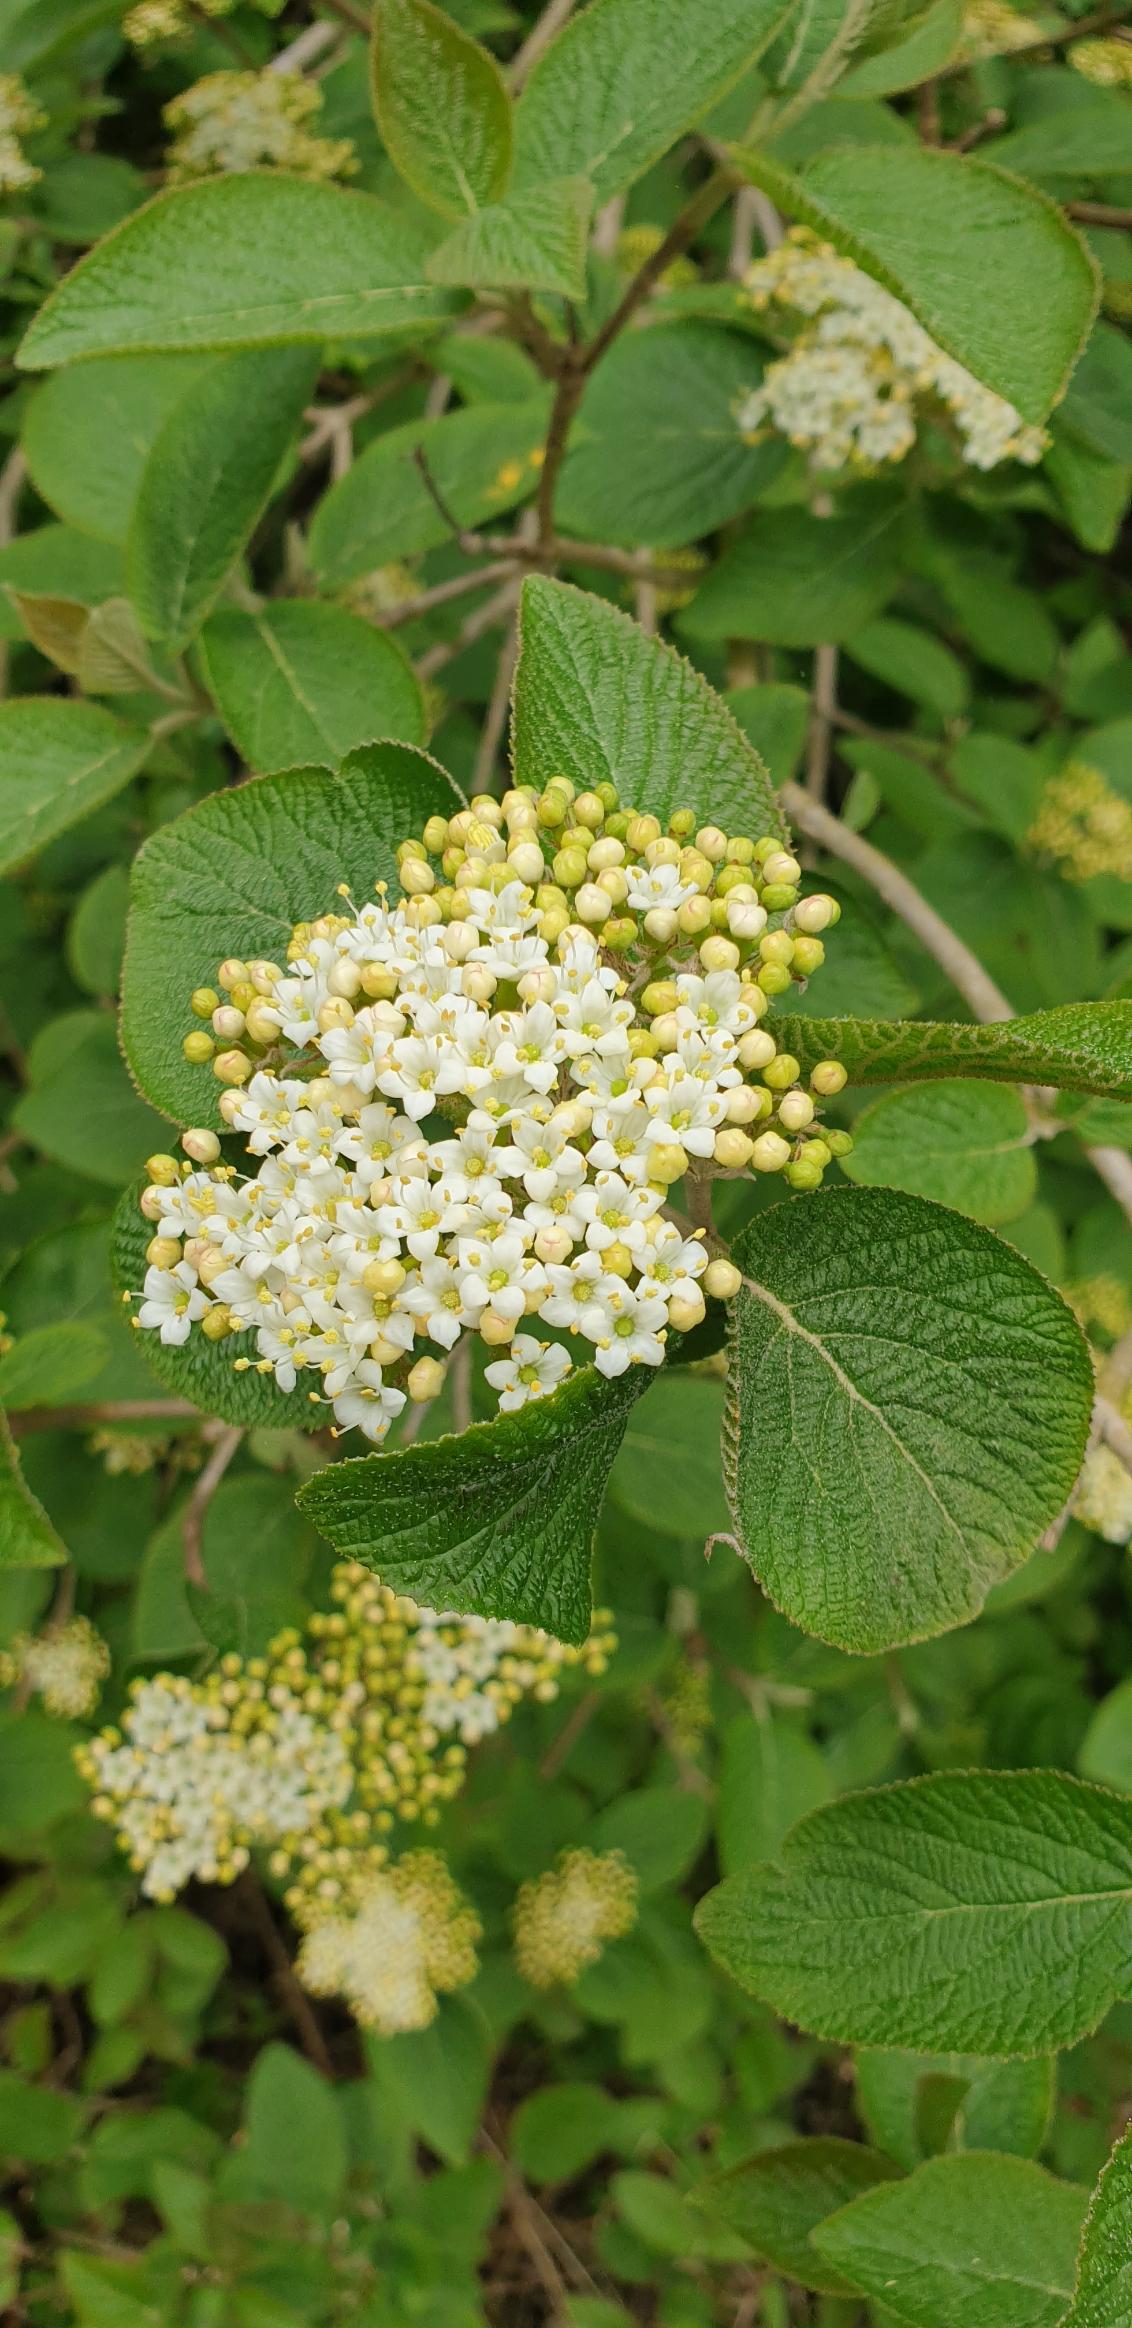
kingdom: Plantae
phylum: Tracheophyta
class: Magnoliopsida
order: Dipsacales
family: Viburnaceae
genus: Viburnum
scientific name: Viburnum lantana
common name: Pibe-kvalkved
